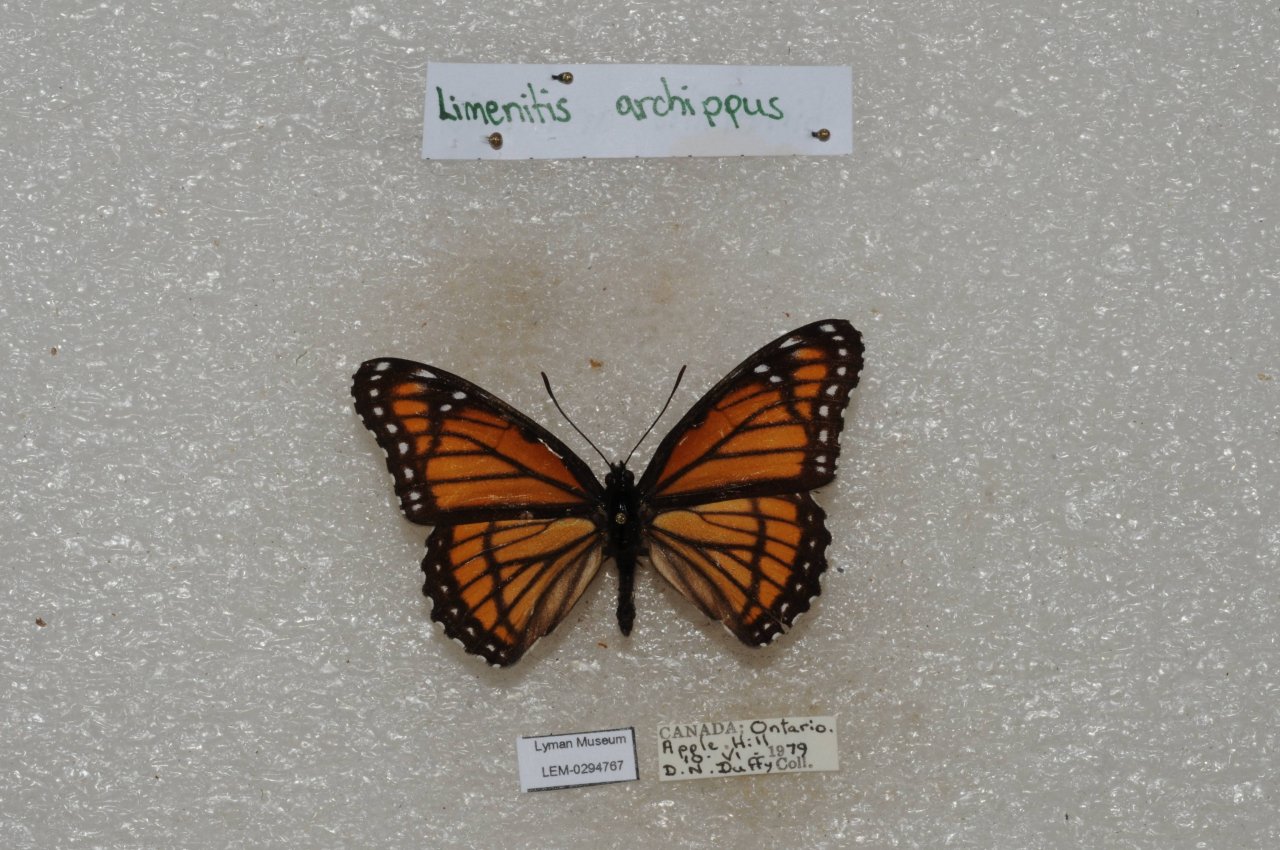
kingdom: Animalia
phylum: Arthropoda
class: Insecta
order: Lepidoptera
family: Nymphalidae
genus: Limenitis
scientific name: Limenitis archippus
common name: Viceroy
